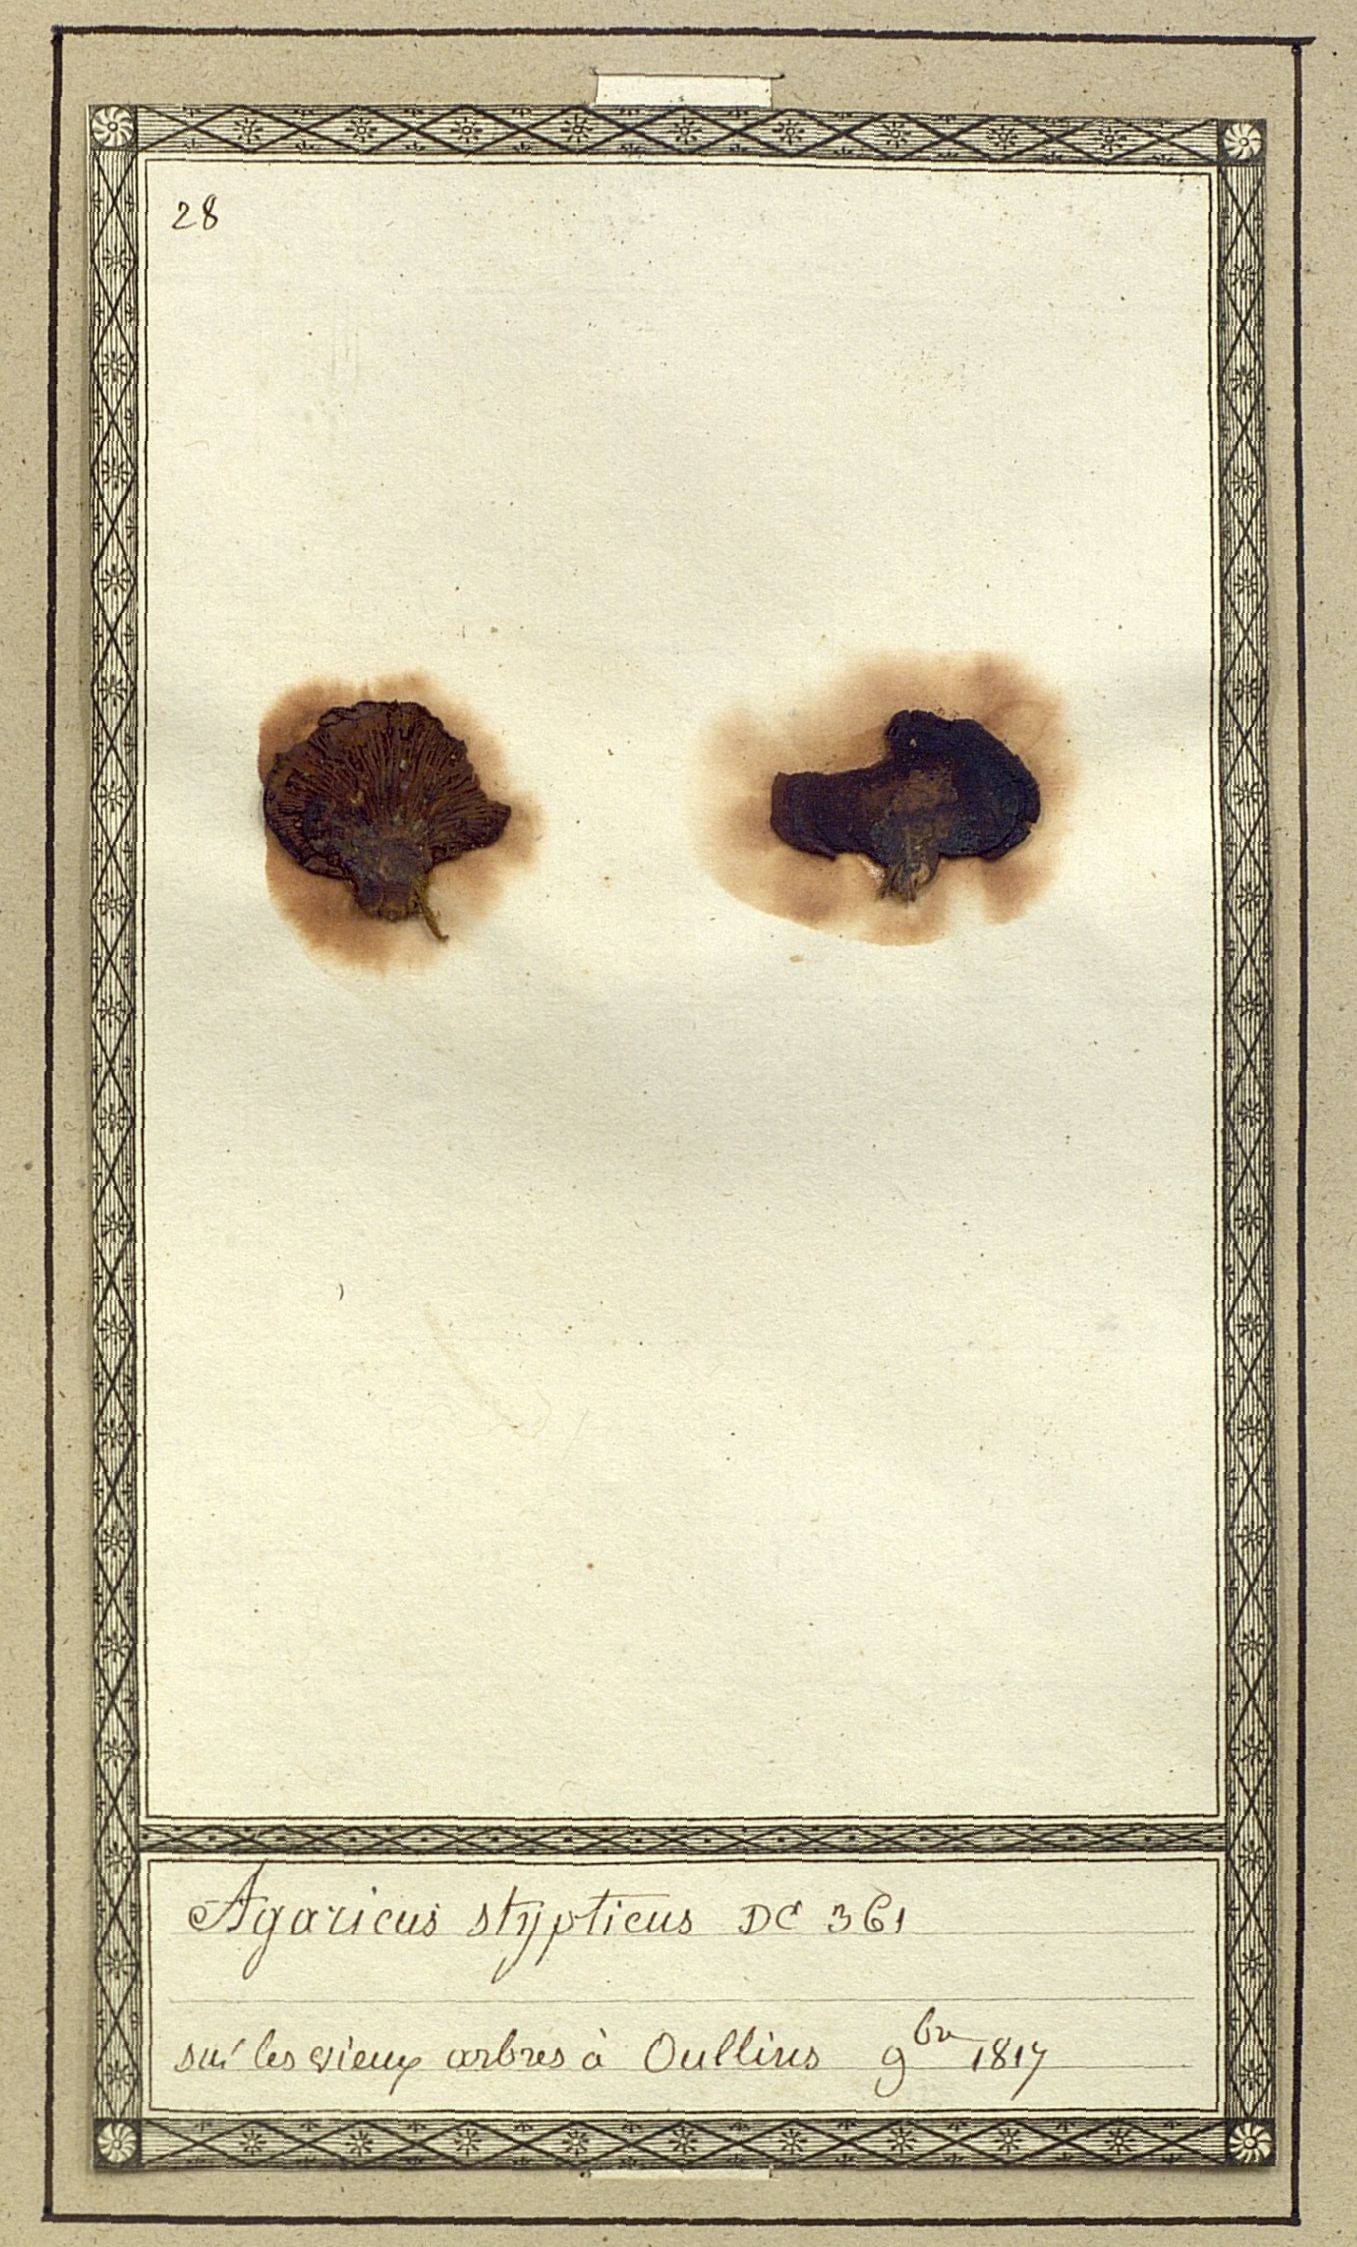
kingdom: Fungi
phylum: Basidiomycota
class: Agaricomycetes
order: Agaricales
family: Mycenaceae
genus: Panellus
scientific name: Panellus stipticus
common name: Bitter oysterling
